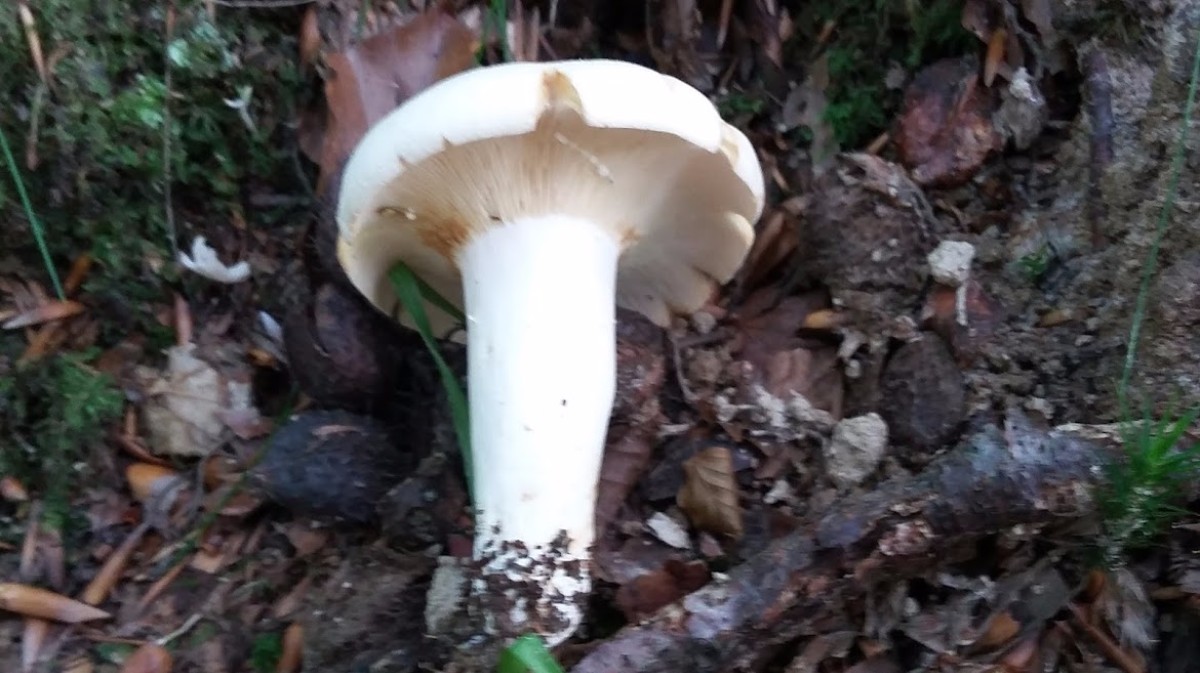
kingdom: Fungi
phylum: Basidiomycota
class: Agaricomycetes
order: Russulales
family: Russulaceae
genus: Lactifluus
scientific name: Lactifluus piperatus
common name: peber-mælkehat
